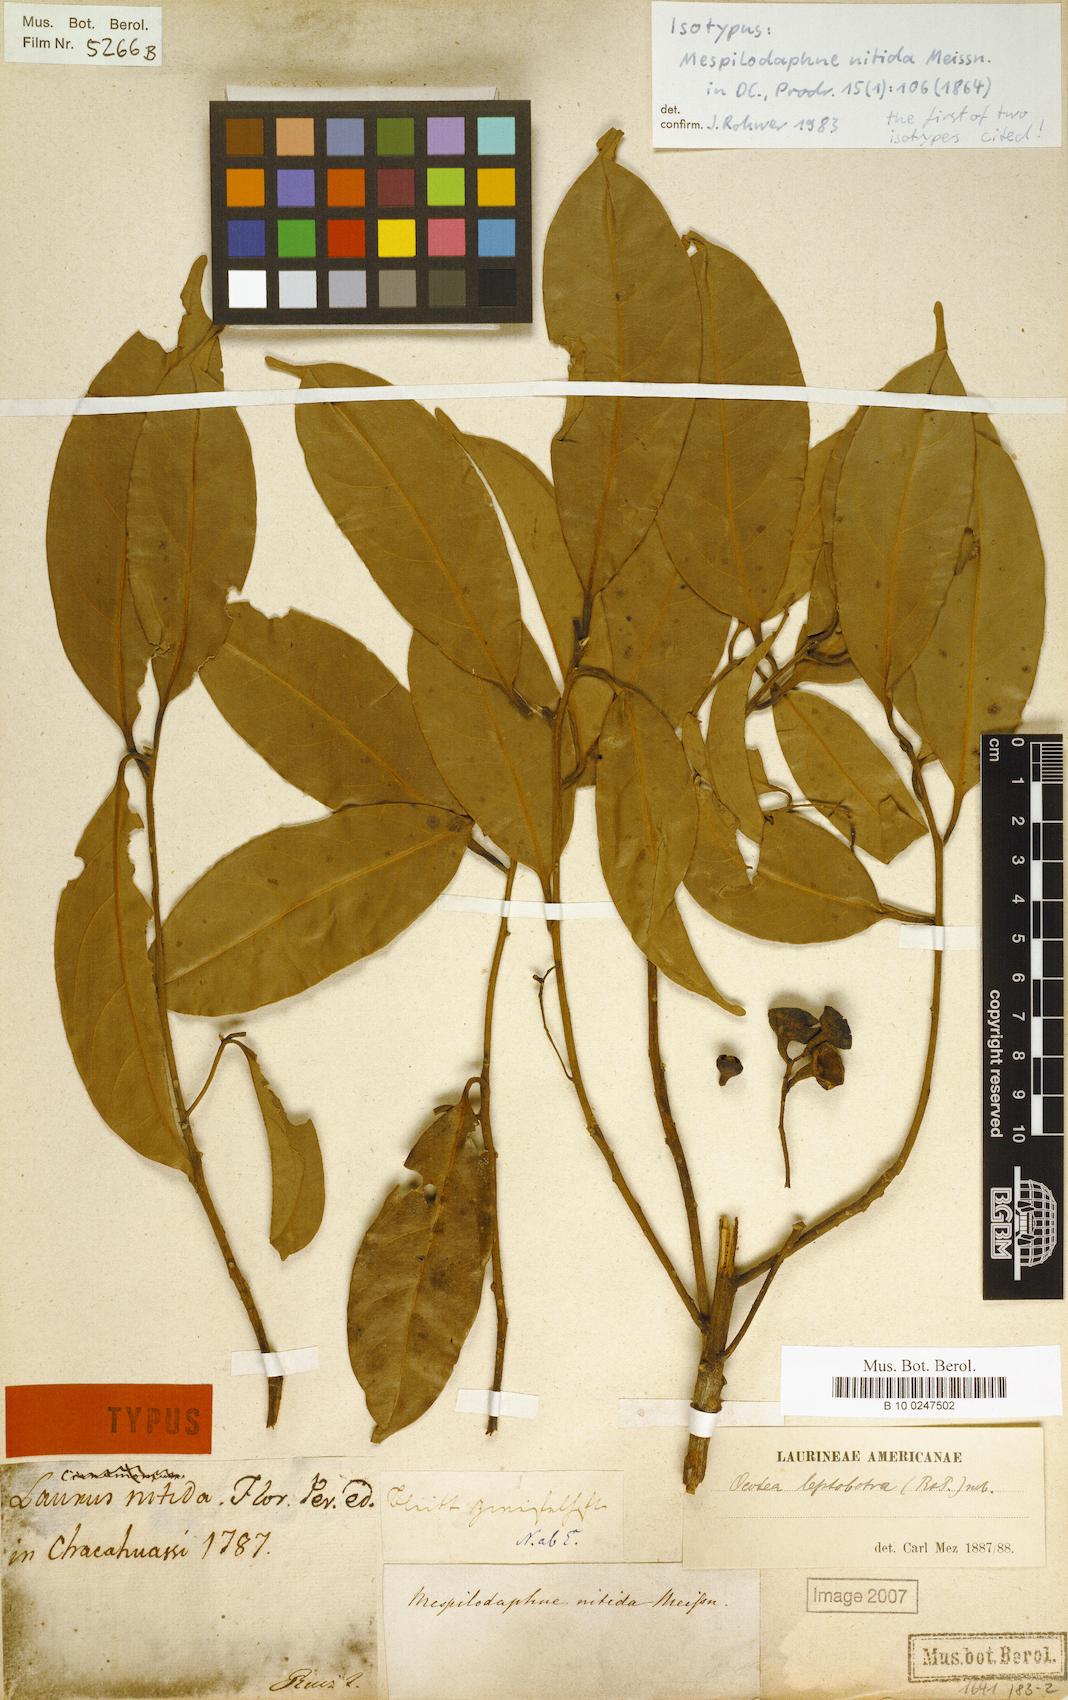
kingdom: Plantae
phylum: Tracheophyta
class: Magnoliopsida
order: Laurales
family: Lauraceae
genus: Ocotea
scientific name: Ocotea leptobotra
